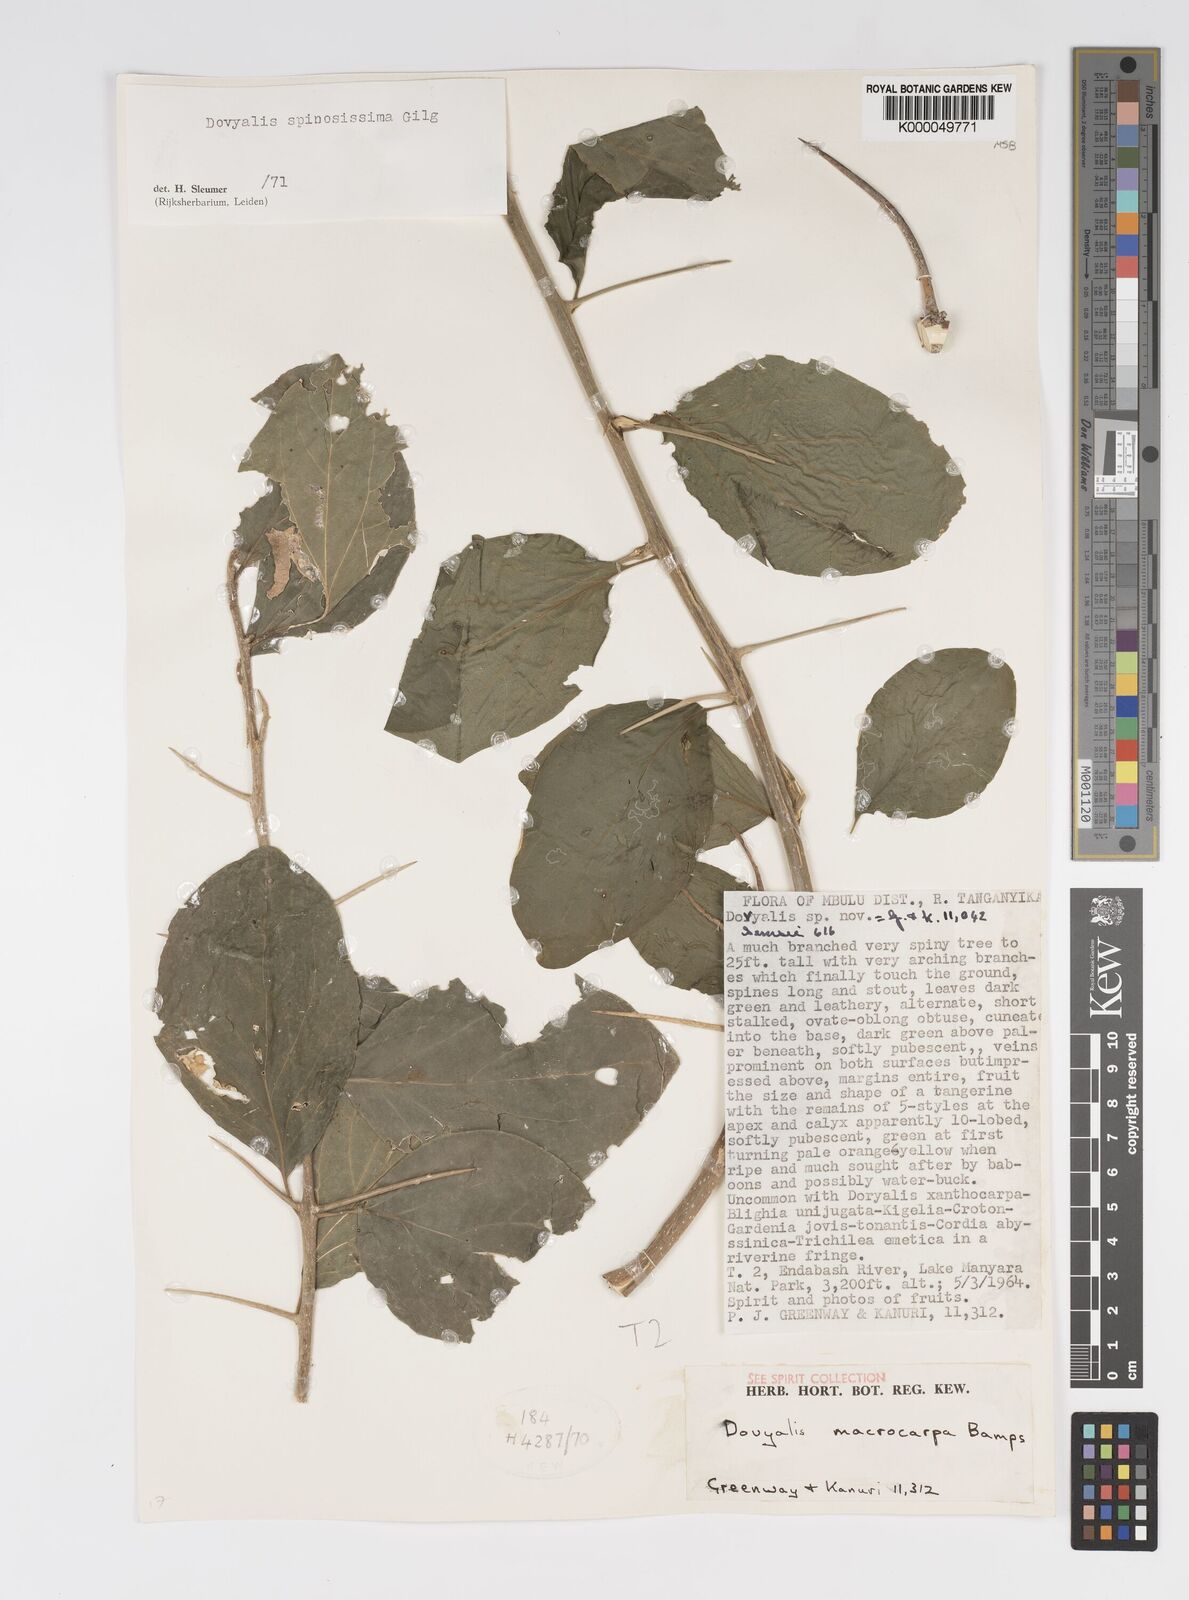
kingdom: Plantae
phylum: Tracheophyta
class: Magnoliopsida
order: Malpighiales
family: Salicaceae
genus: Dovyalis
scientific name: Dovyalis spinosissima
